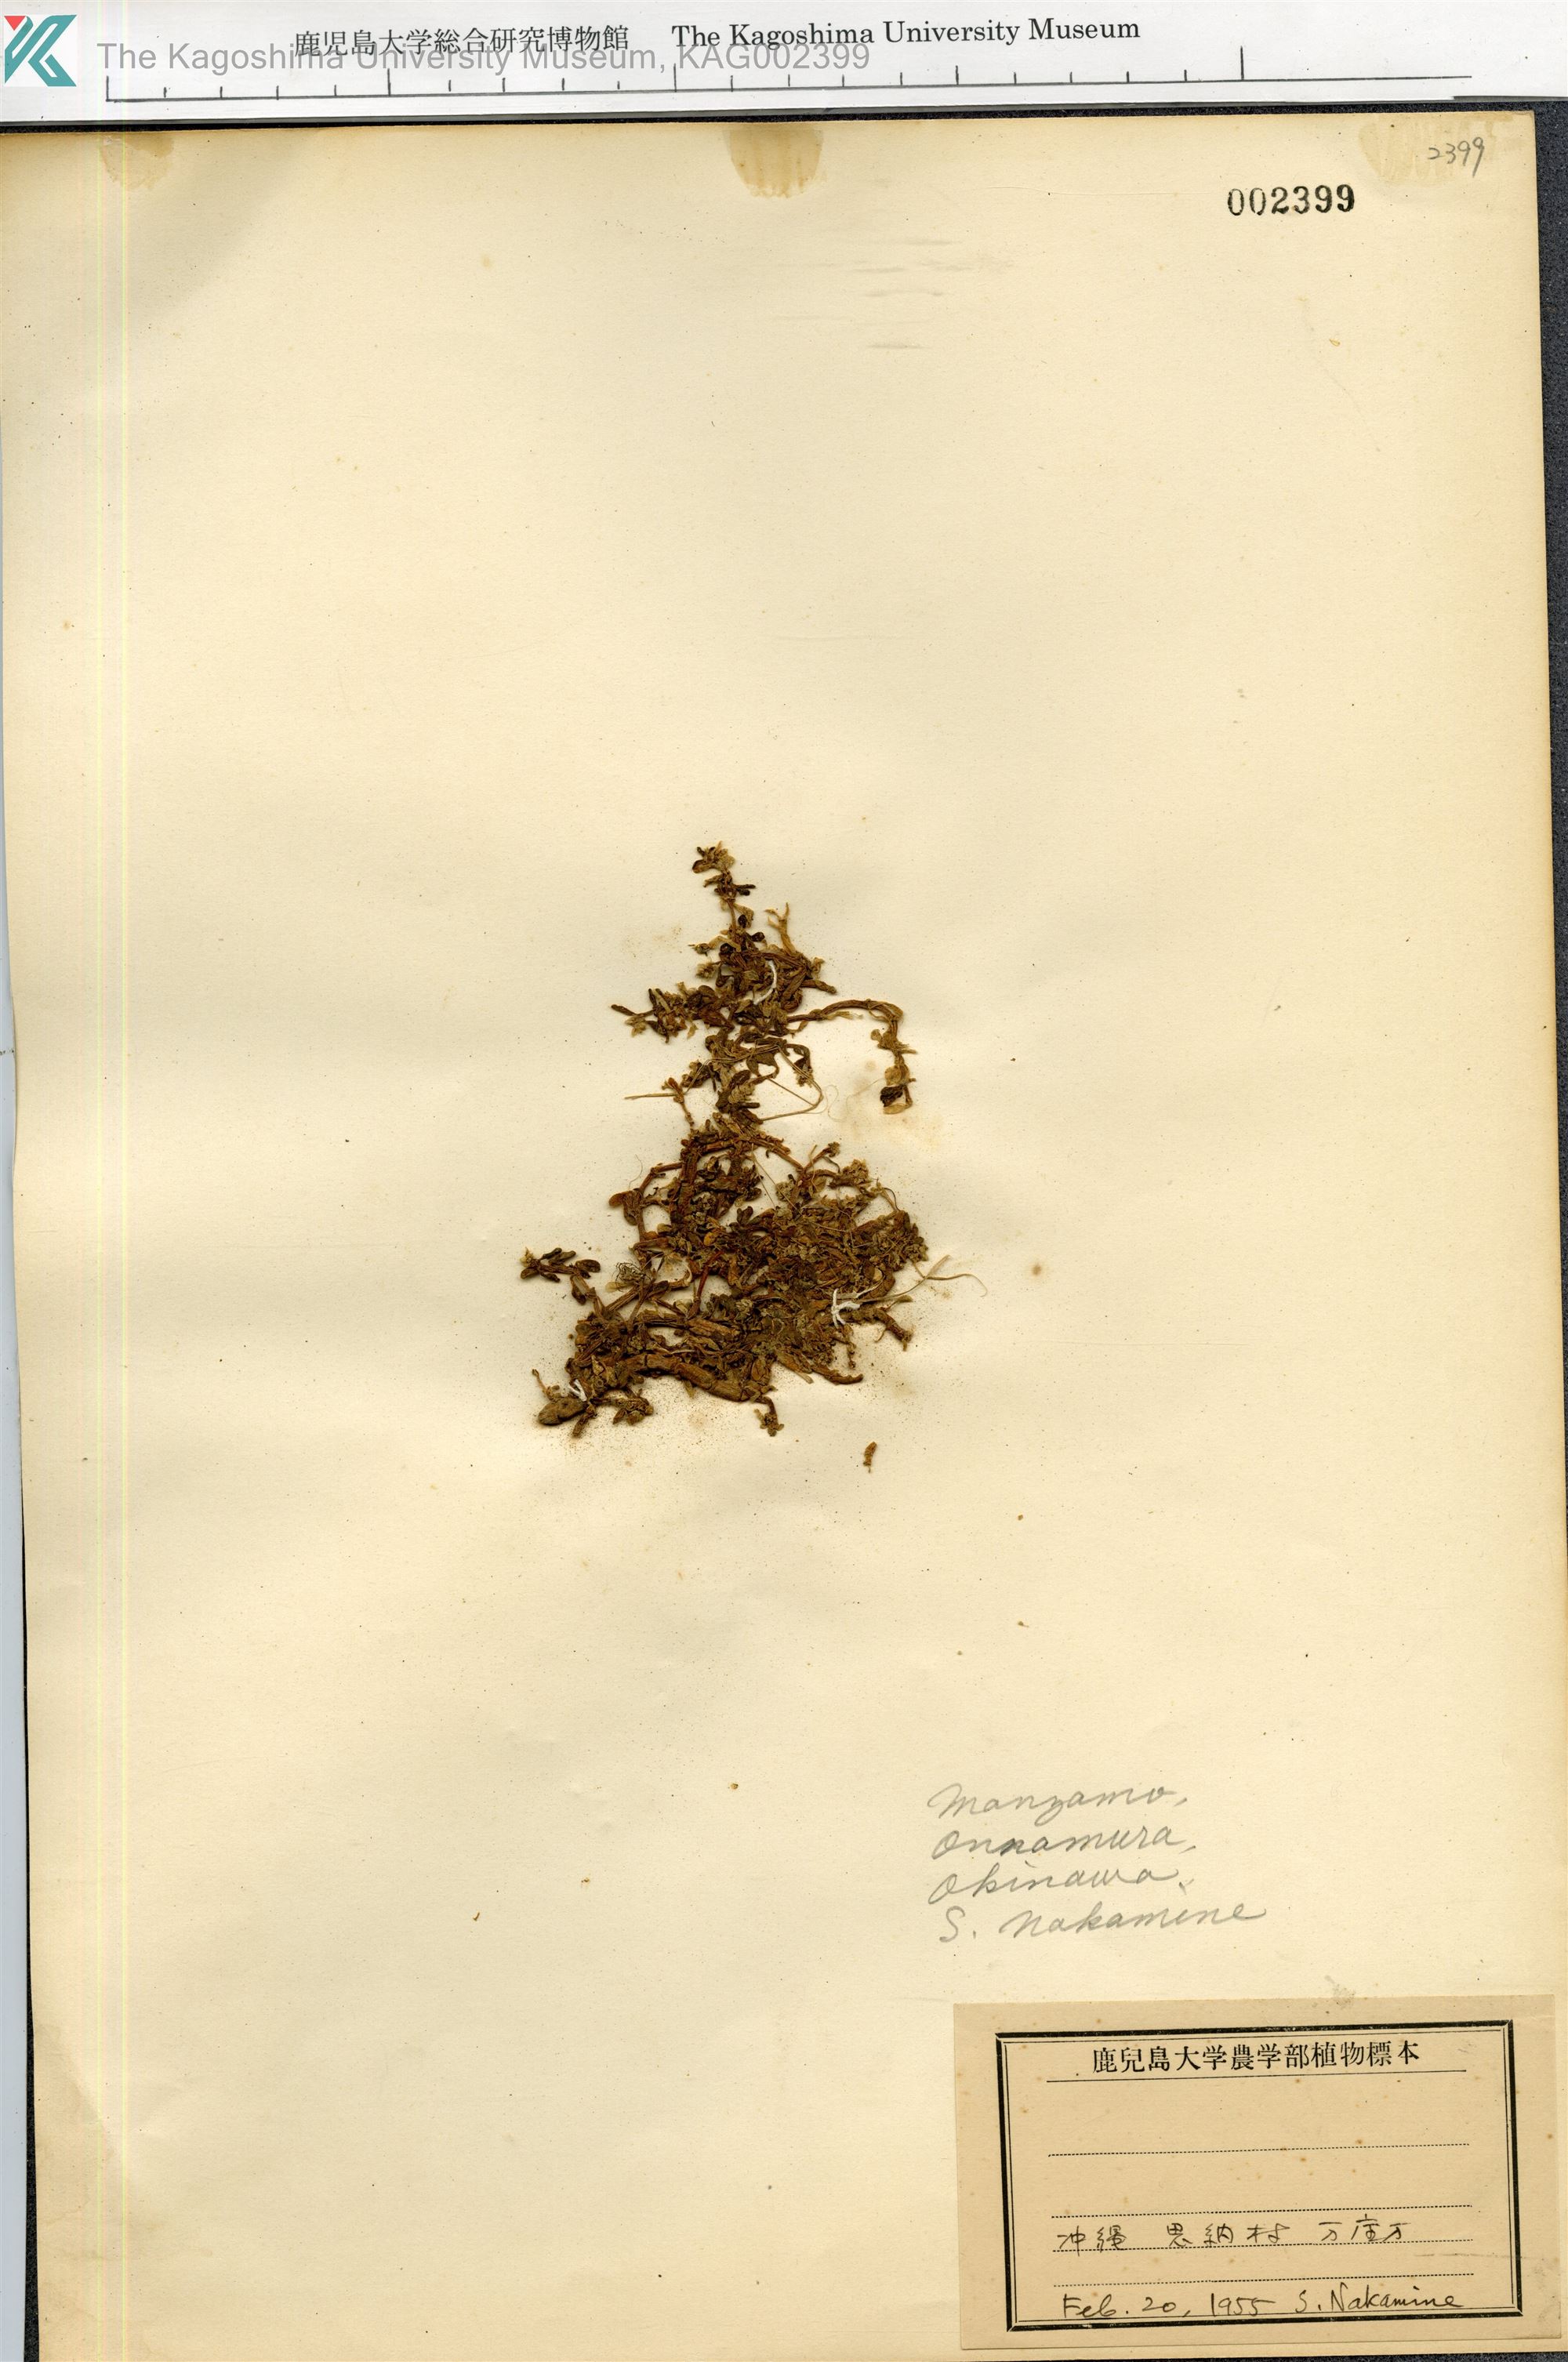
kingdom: Plantae
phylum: Tracheophyta
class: Magnoliopsida
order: Caryophyllales
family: Amaranthaceae
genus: Gomphrena
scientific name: Gomphrena wrightii
